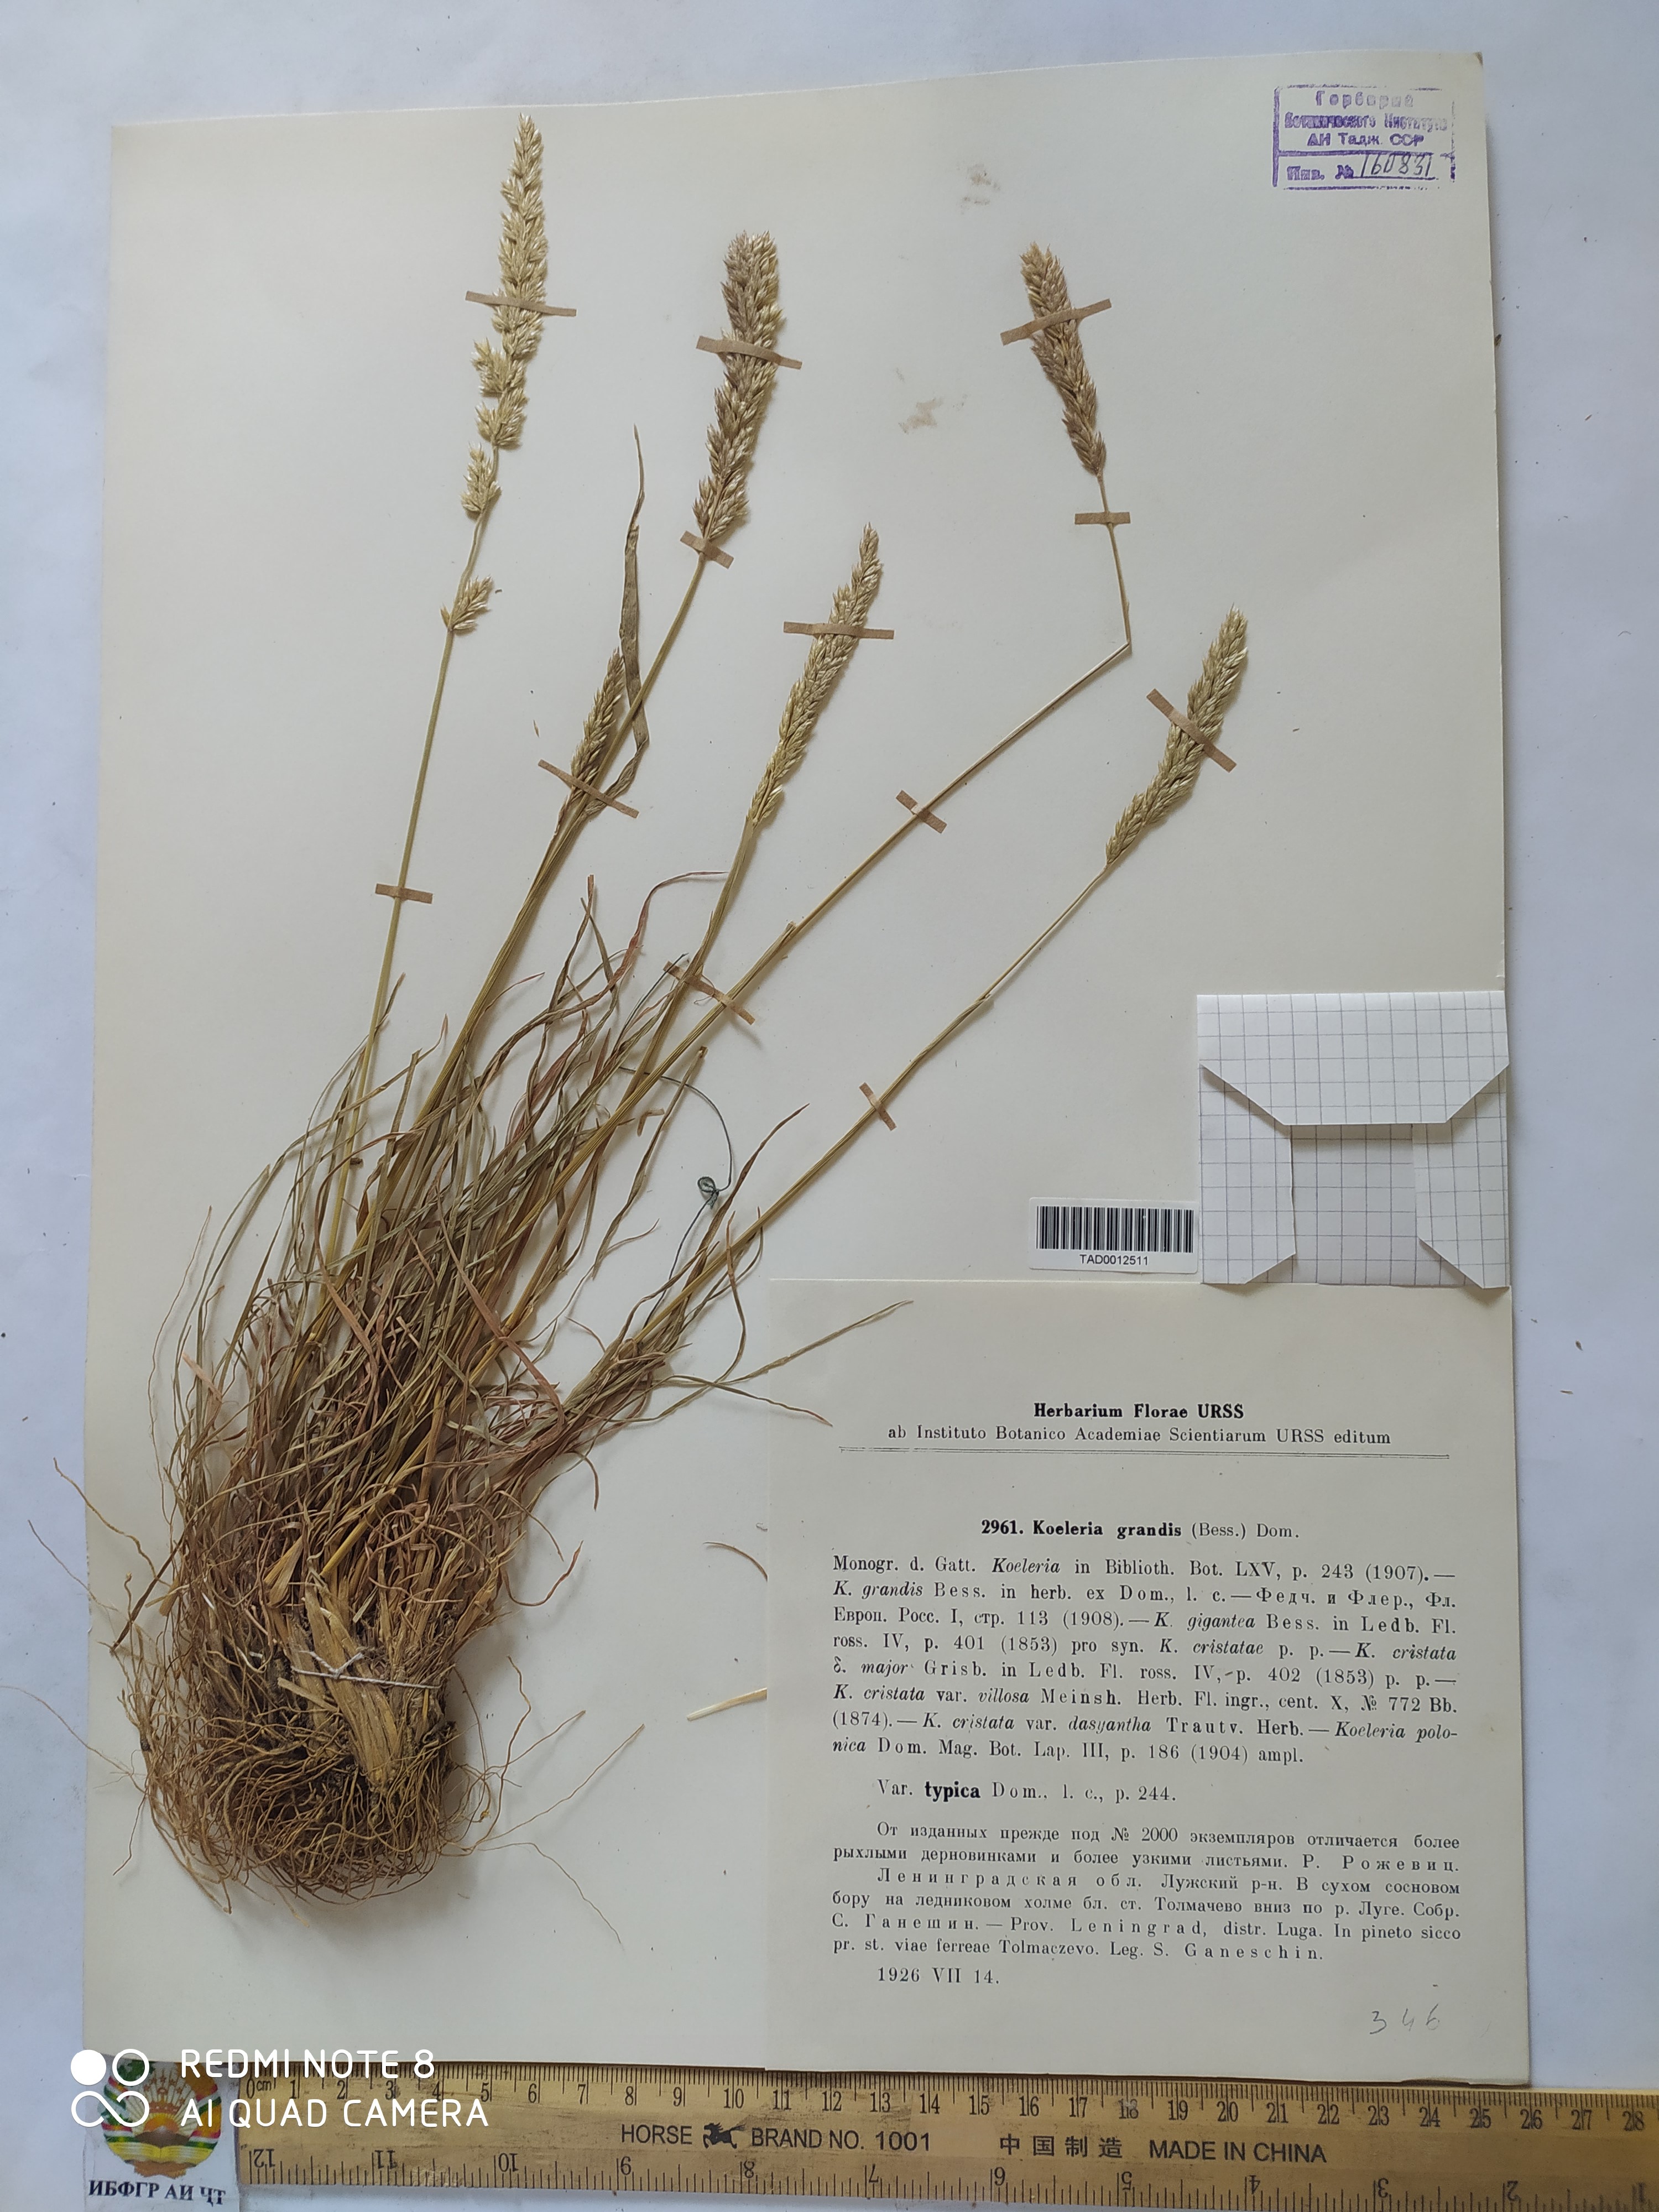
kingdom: Plantae
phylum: Tracheophyta
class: Liliopsida
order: Poales
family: Poaceae
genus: Koeleria
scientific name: Koeleria macrantha
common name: Crested hair-grass
